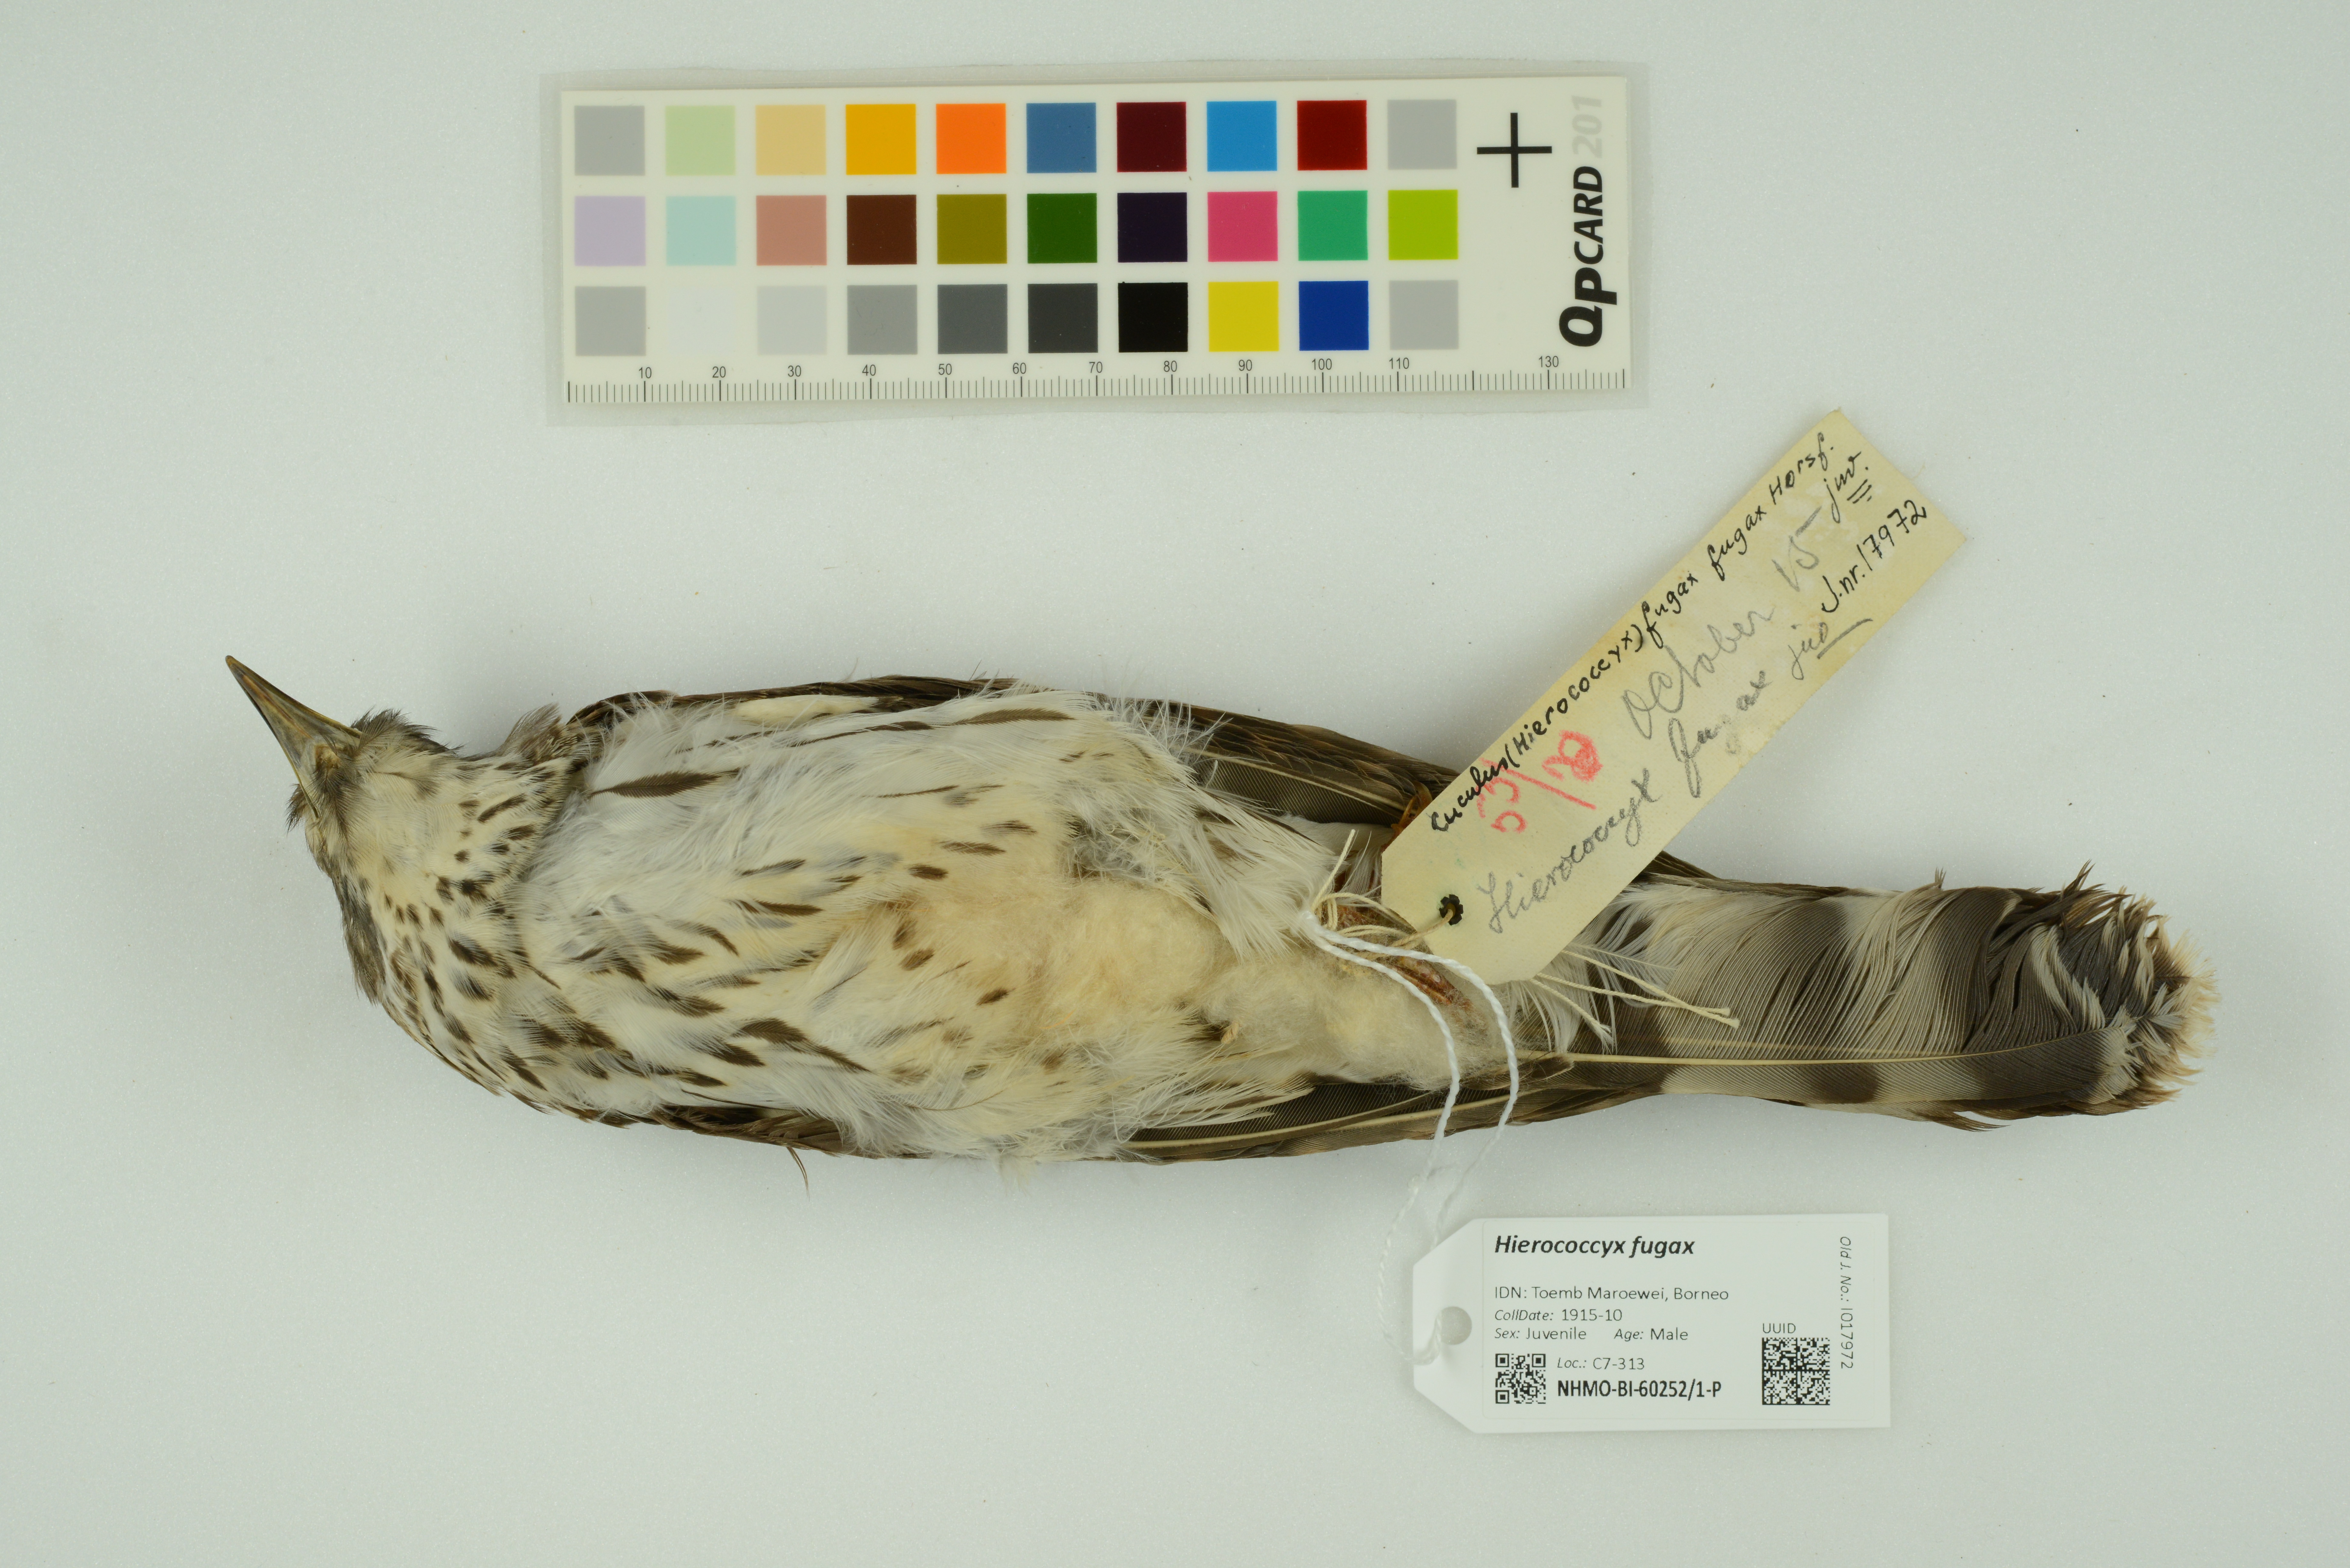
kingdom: Animalia
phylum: Chordata
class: Aves
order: Cuculiformes
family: Cuculidae
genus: Cuculus
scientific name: Cuculus fugax
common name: Hodgson's hawk-cuckoo
